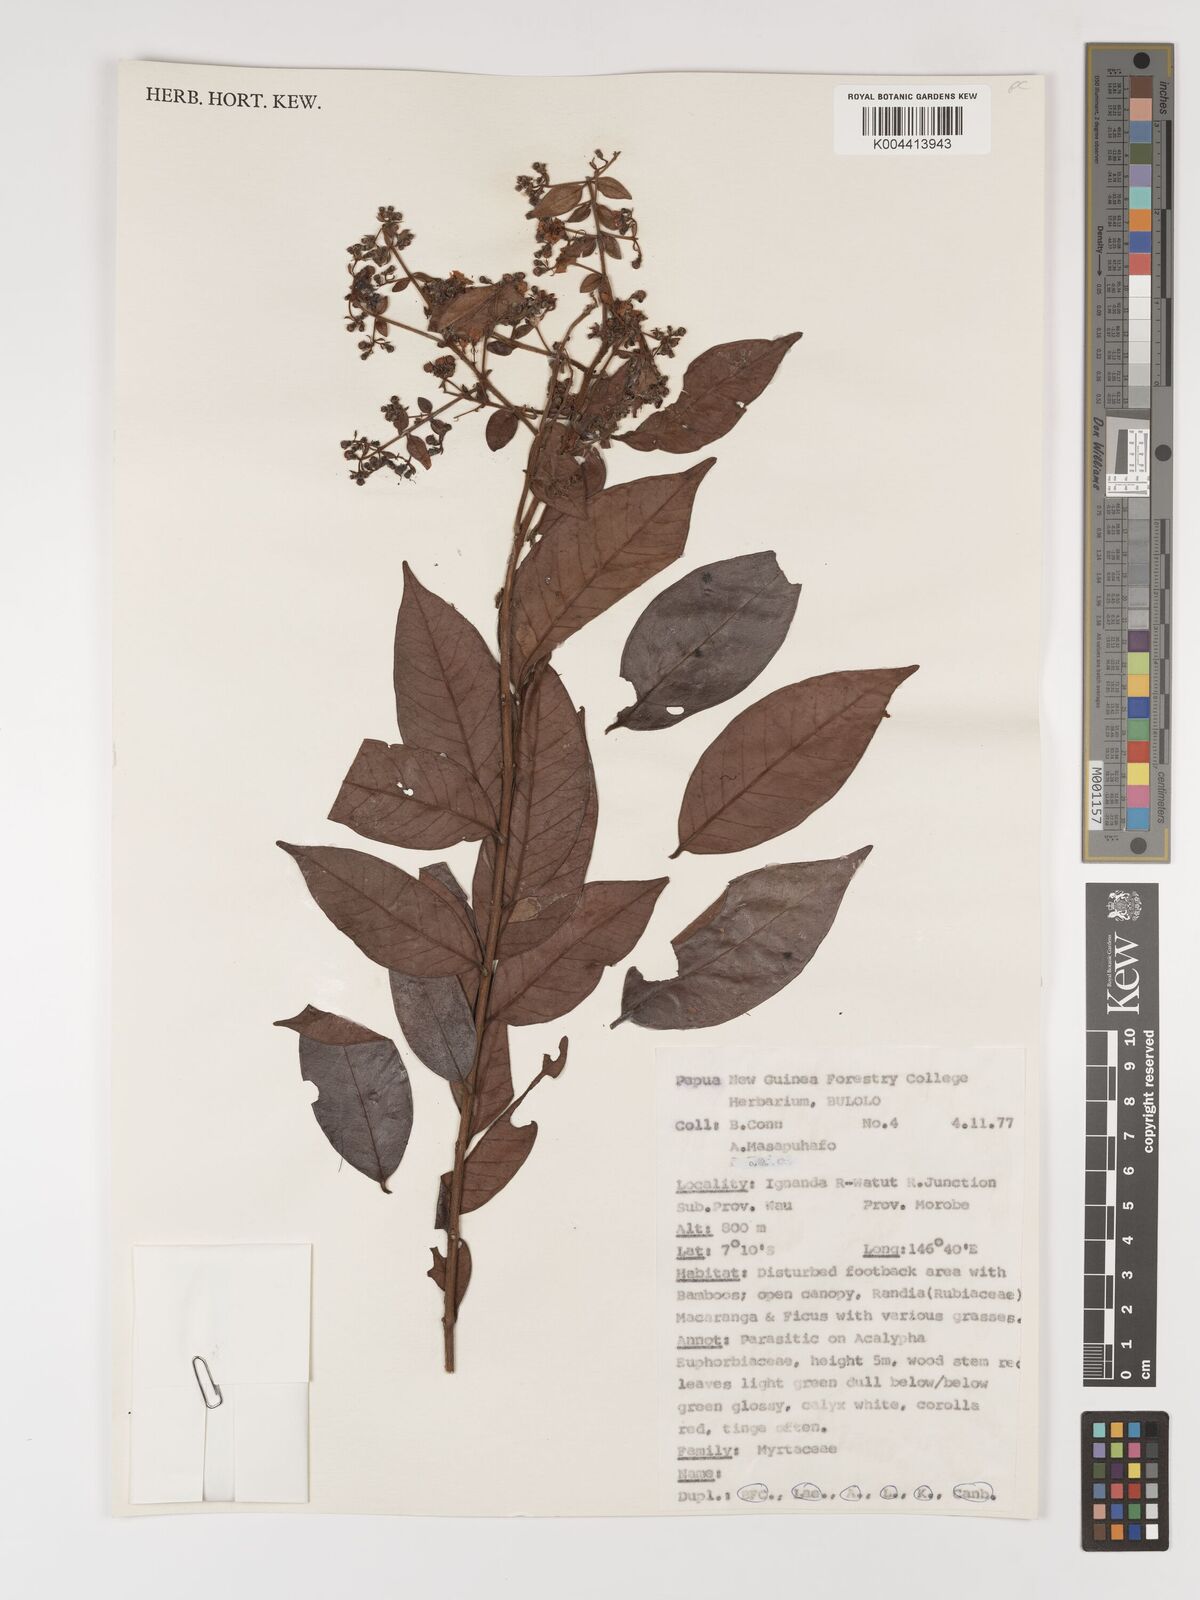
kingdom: Plantae
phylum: Tracheophyta
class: Magnoliopsida
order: Myrtales
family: Myrtaceae
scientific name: Myrtaceae
